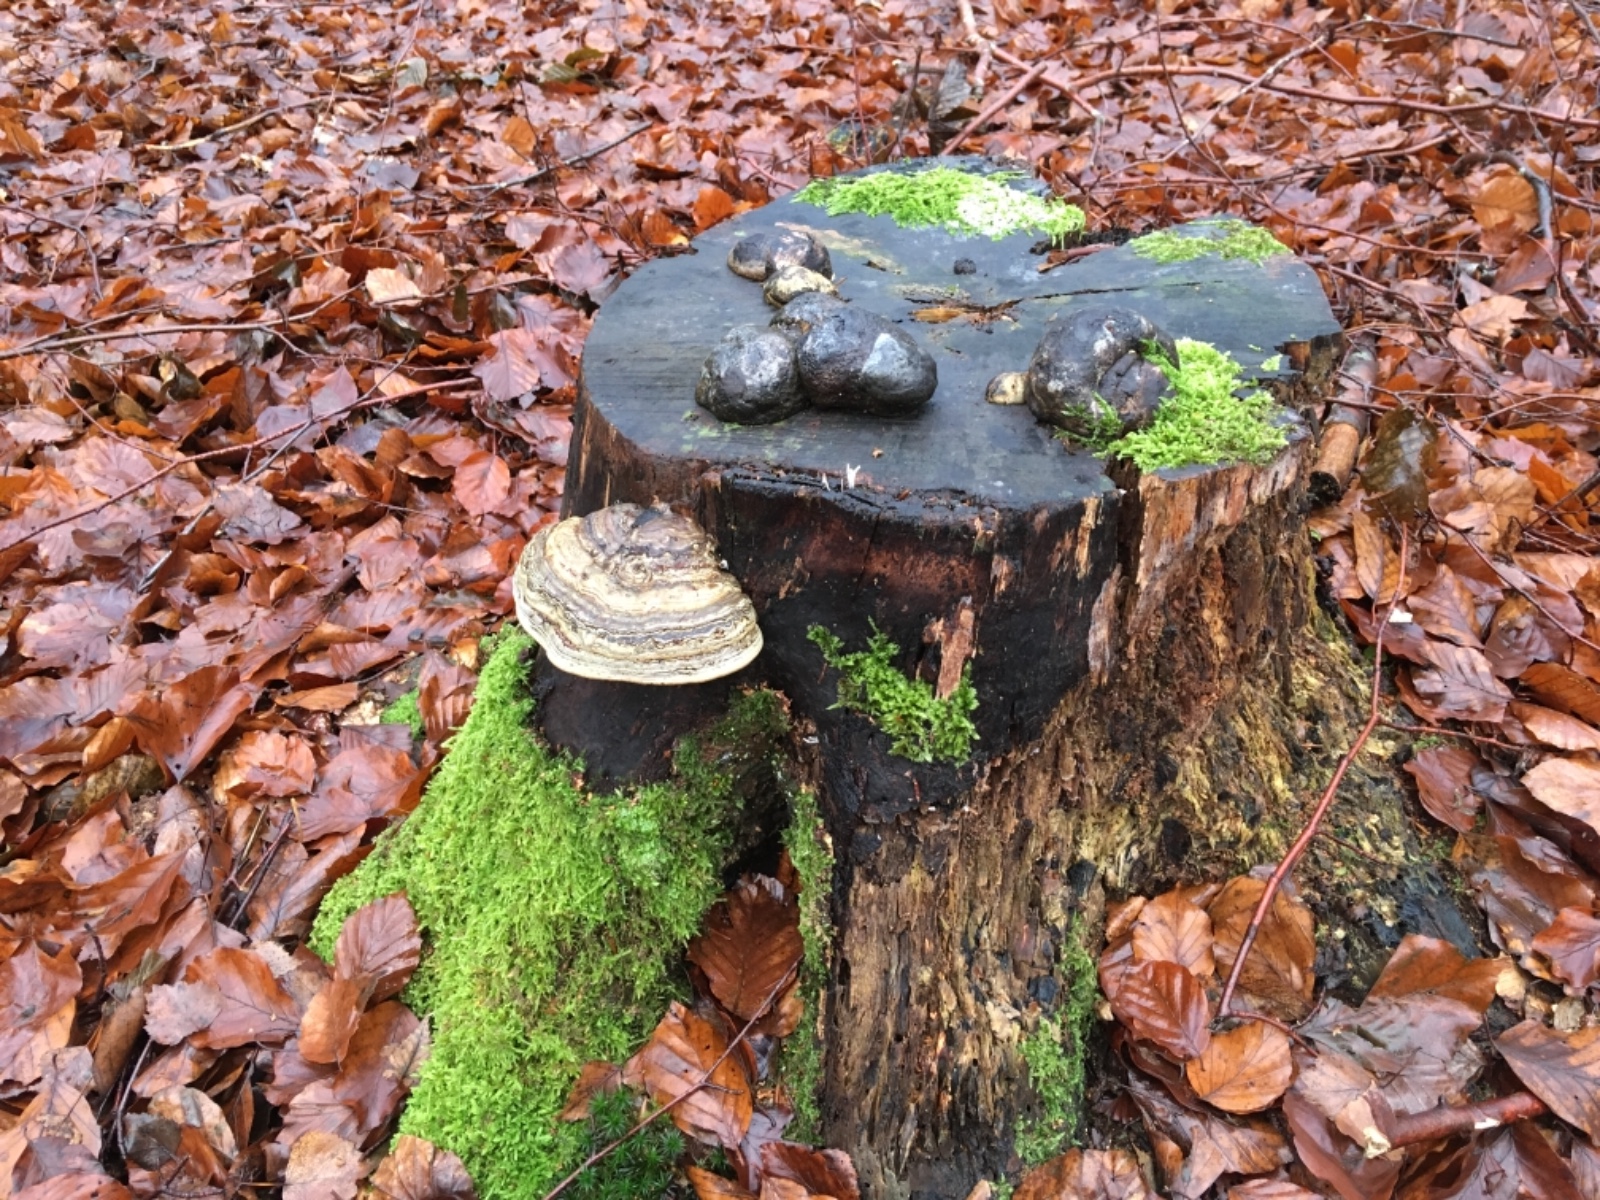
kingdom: Fungi
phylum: Basidiomycota
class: Agaricomycetes
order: Polyporales
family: Polyporaceae
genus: Fomes
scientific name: Fomes fomentarius
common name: tøndersvamp
